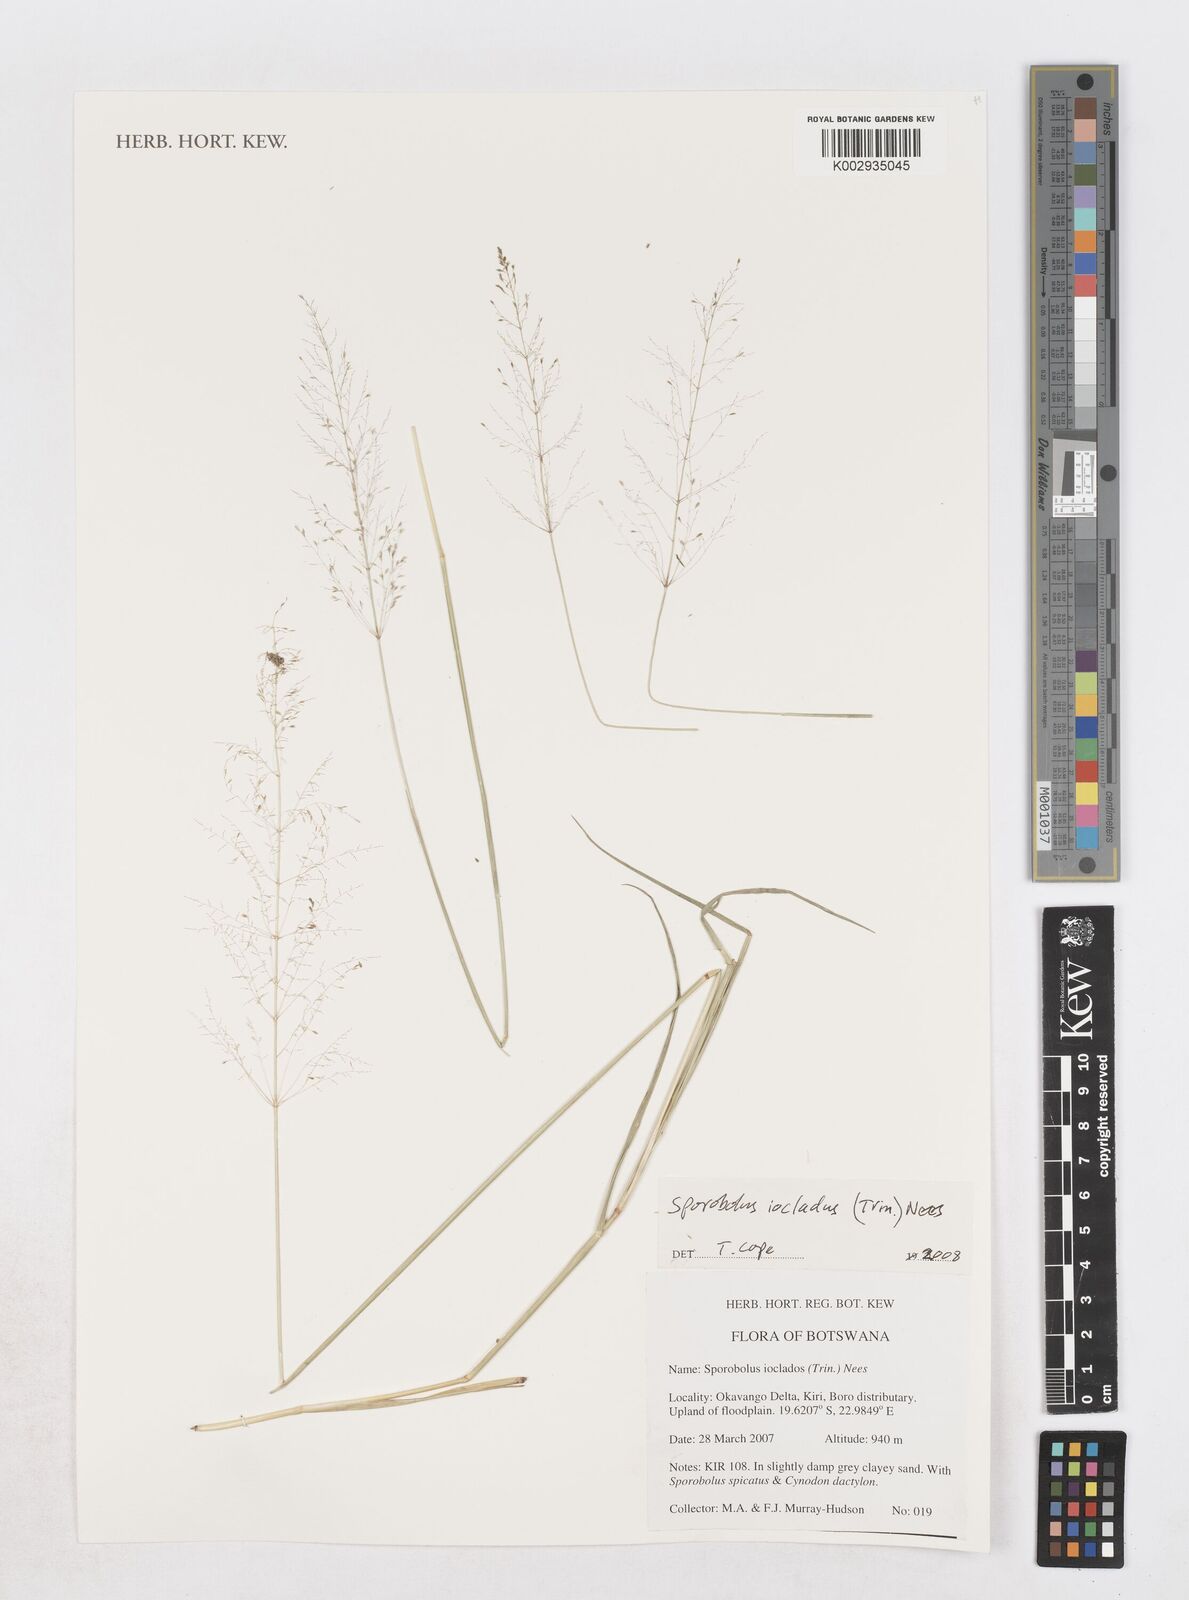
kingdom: Plantae
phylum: Tracheophyta
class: Liliopsida
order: Poales
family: Poaceae
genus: Sporobolus
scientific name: Sporobolus ioclados
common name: Pan dropseed
